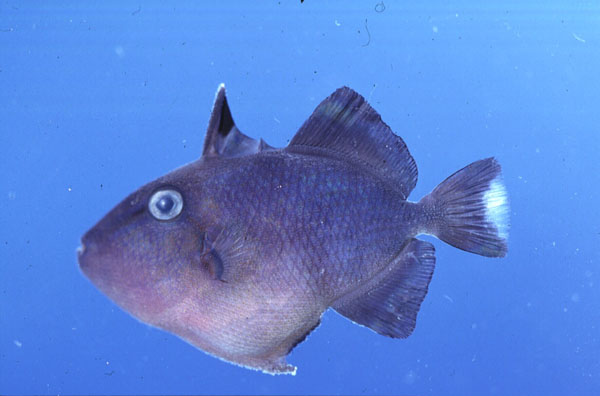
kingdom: Animalia
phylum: Chordata
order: Tetraodontiformes
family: Balistidae
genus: Odonus
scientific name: Odonus niger
